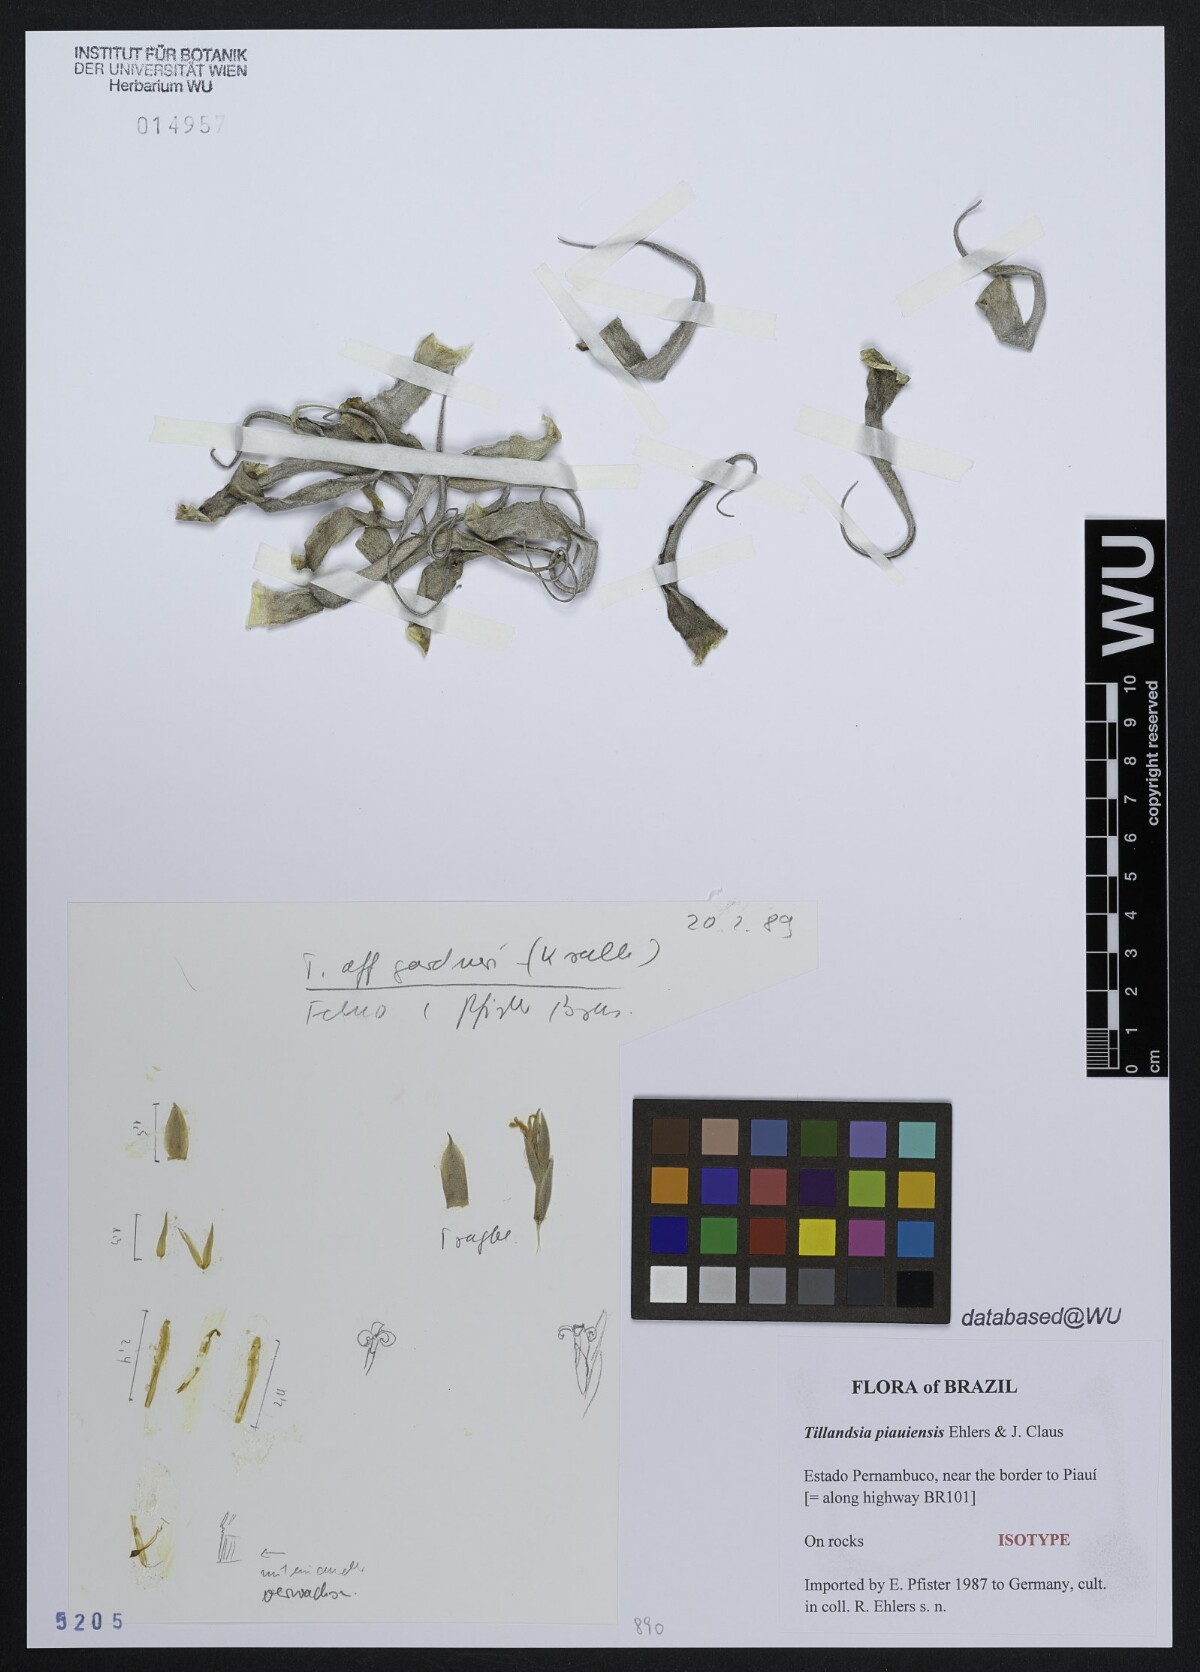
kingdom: Plantae
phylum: Tracheophyta
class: Liliopsida
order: Poales
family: Bromeliaceae
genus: Tillandsia
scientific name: Tillandsia piauiensis
